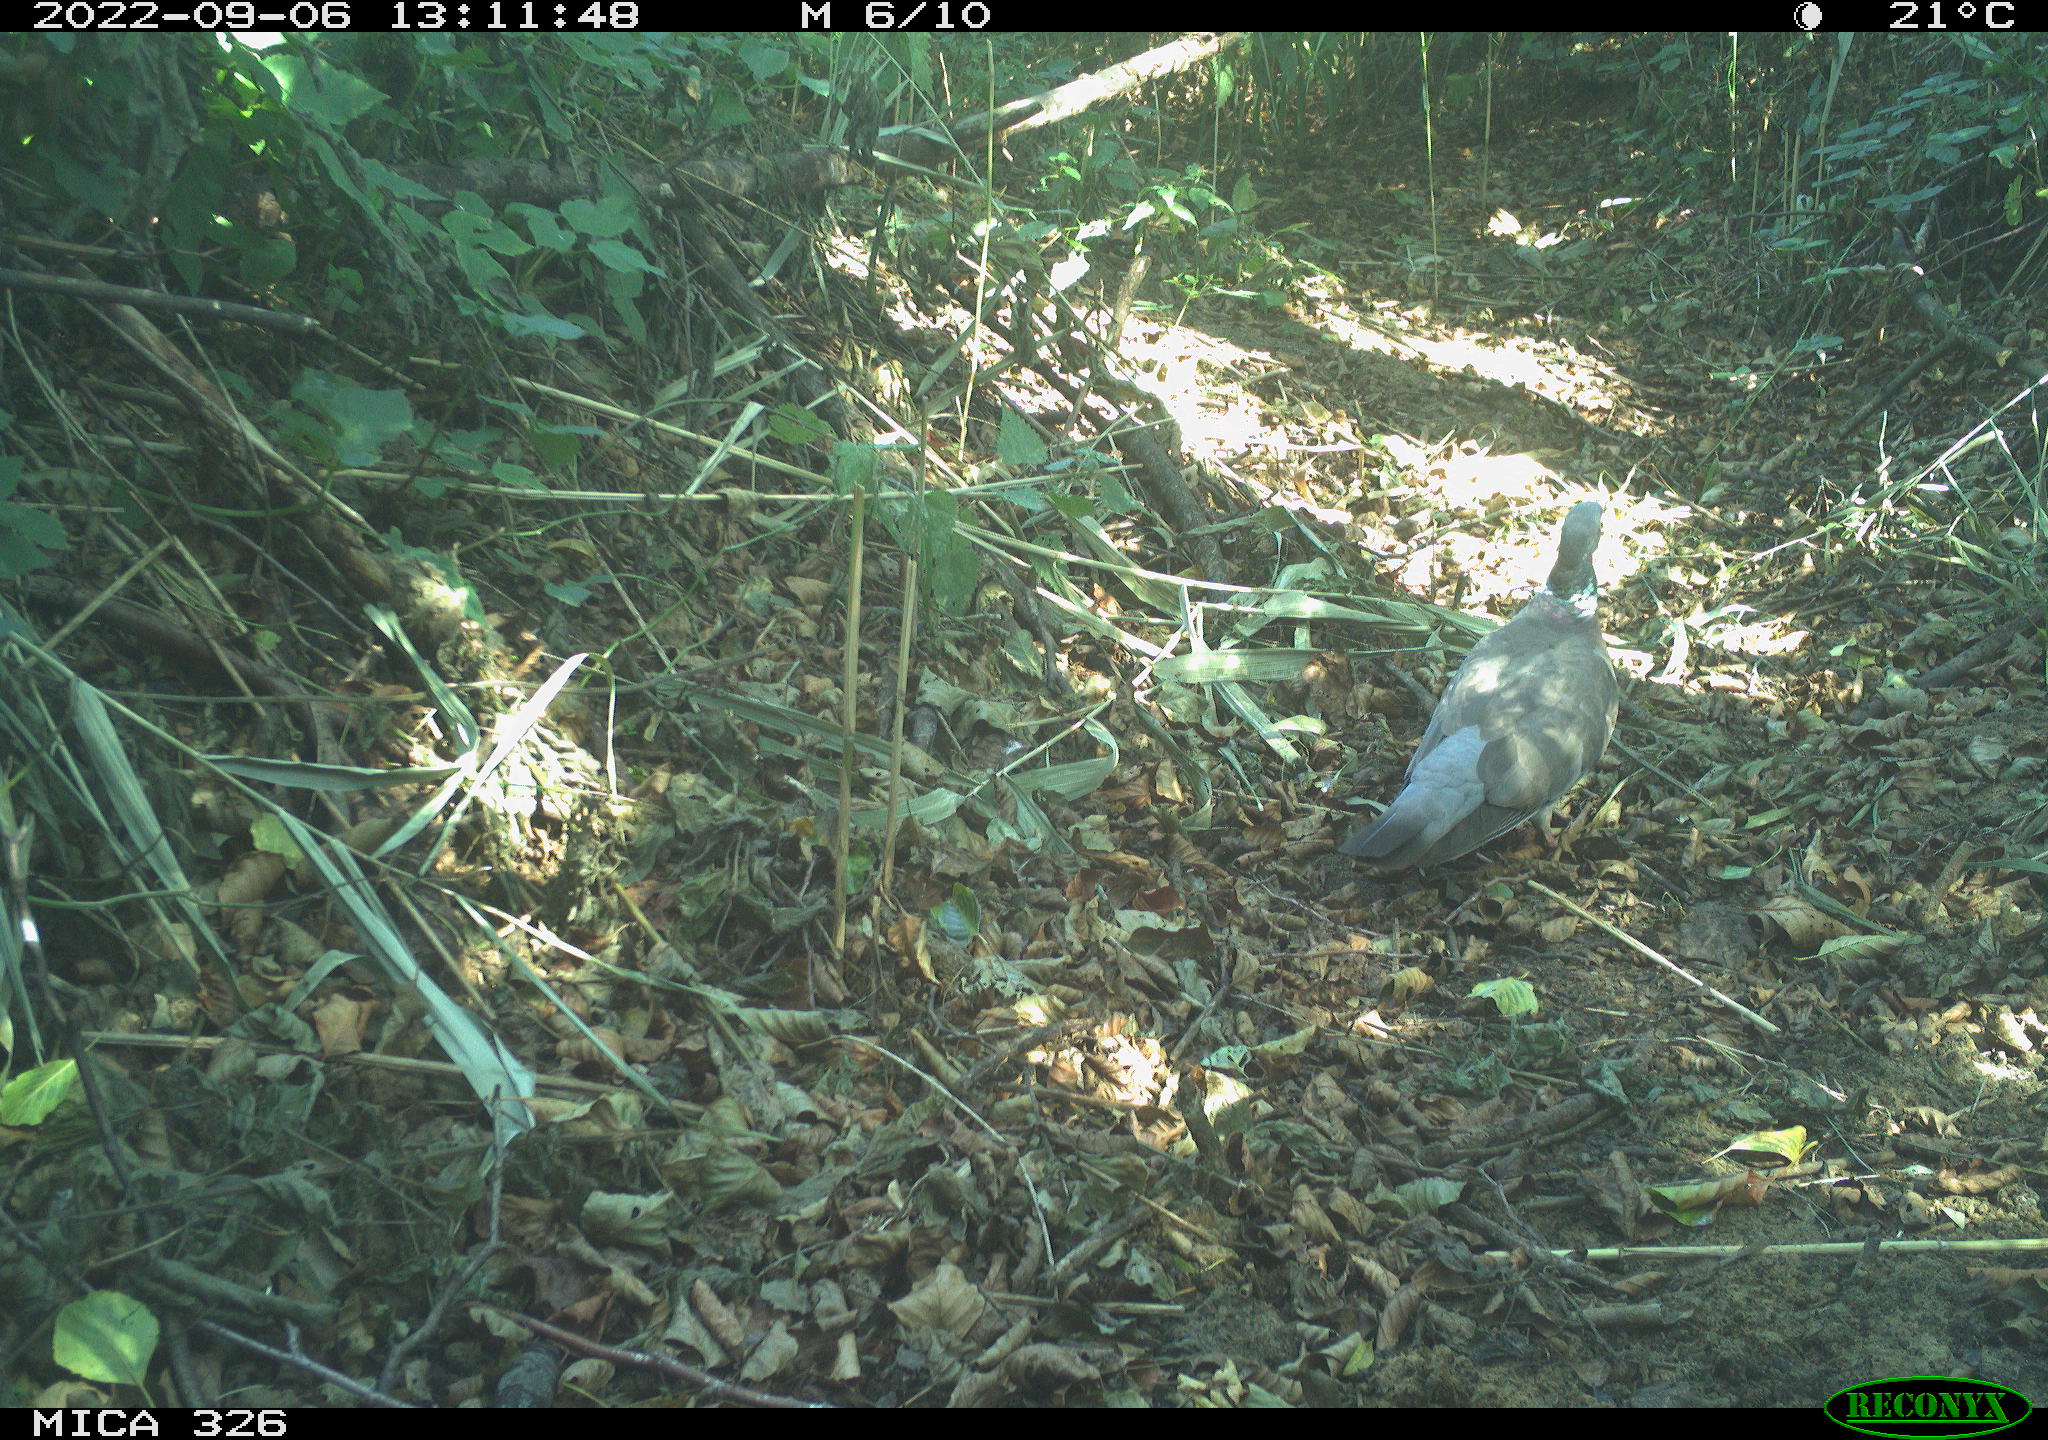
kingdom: Animalia
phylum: Chordata
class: Aves
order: Columbiformes
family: Columbidae
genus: Columba
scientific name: Columba palumbus
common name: Common wood pigeon
